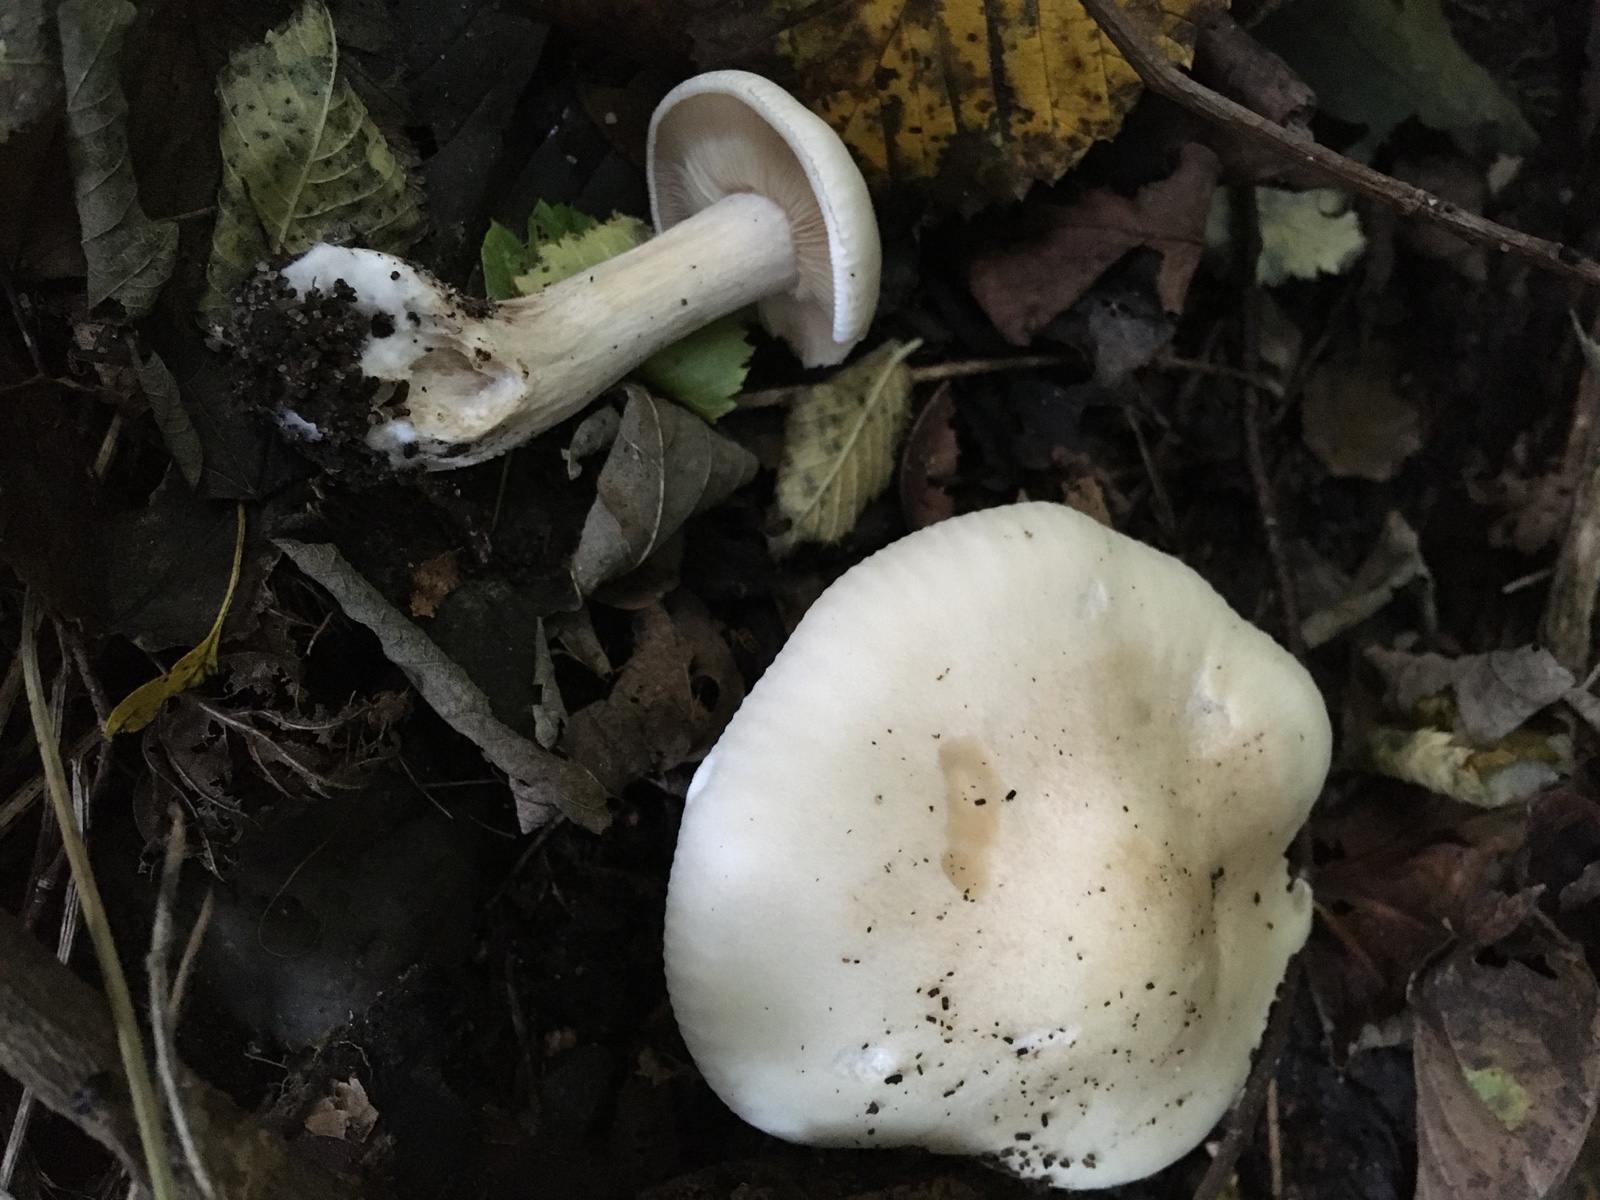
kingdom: Fungi
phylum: Basidiomycota
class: Agaricomycetes
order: Agaricales
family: Tricholomataceae
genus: Lepista
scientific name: Lepista irina
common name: violduftende hekseringshat
